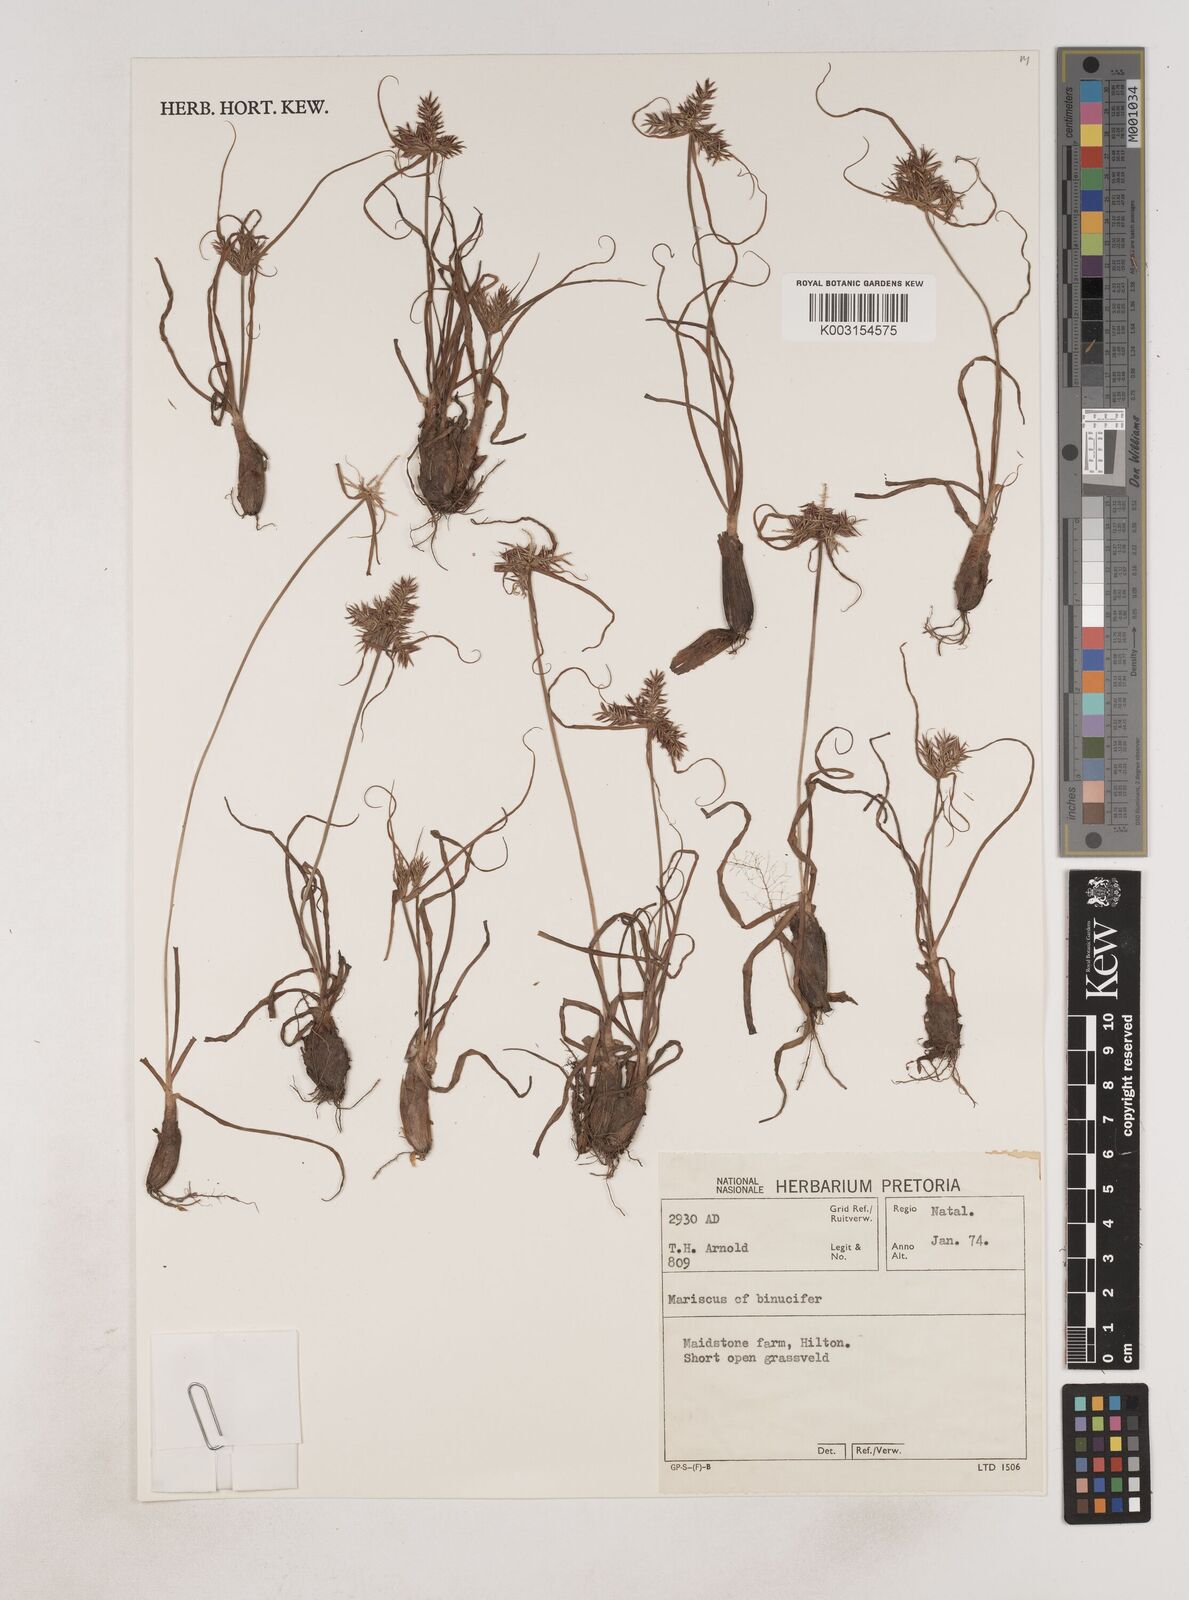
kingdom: Plantae
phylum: Tracheophyta
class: Liliopsida
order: Poales
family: Cyperaceae
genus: Cyperus
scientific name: Cyperus
